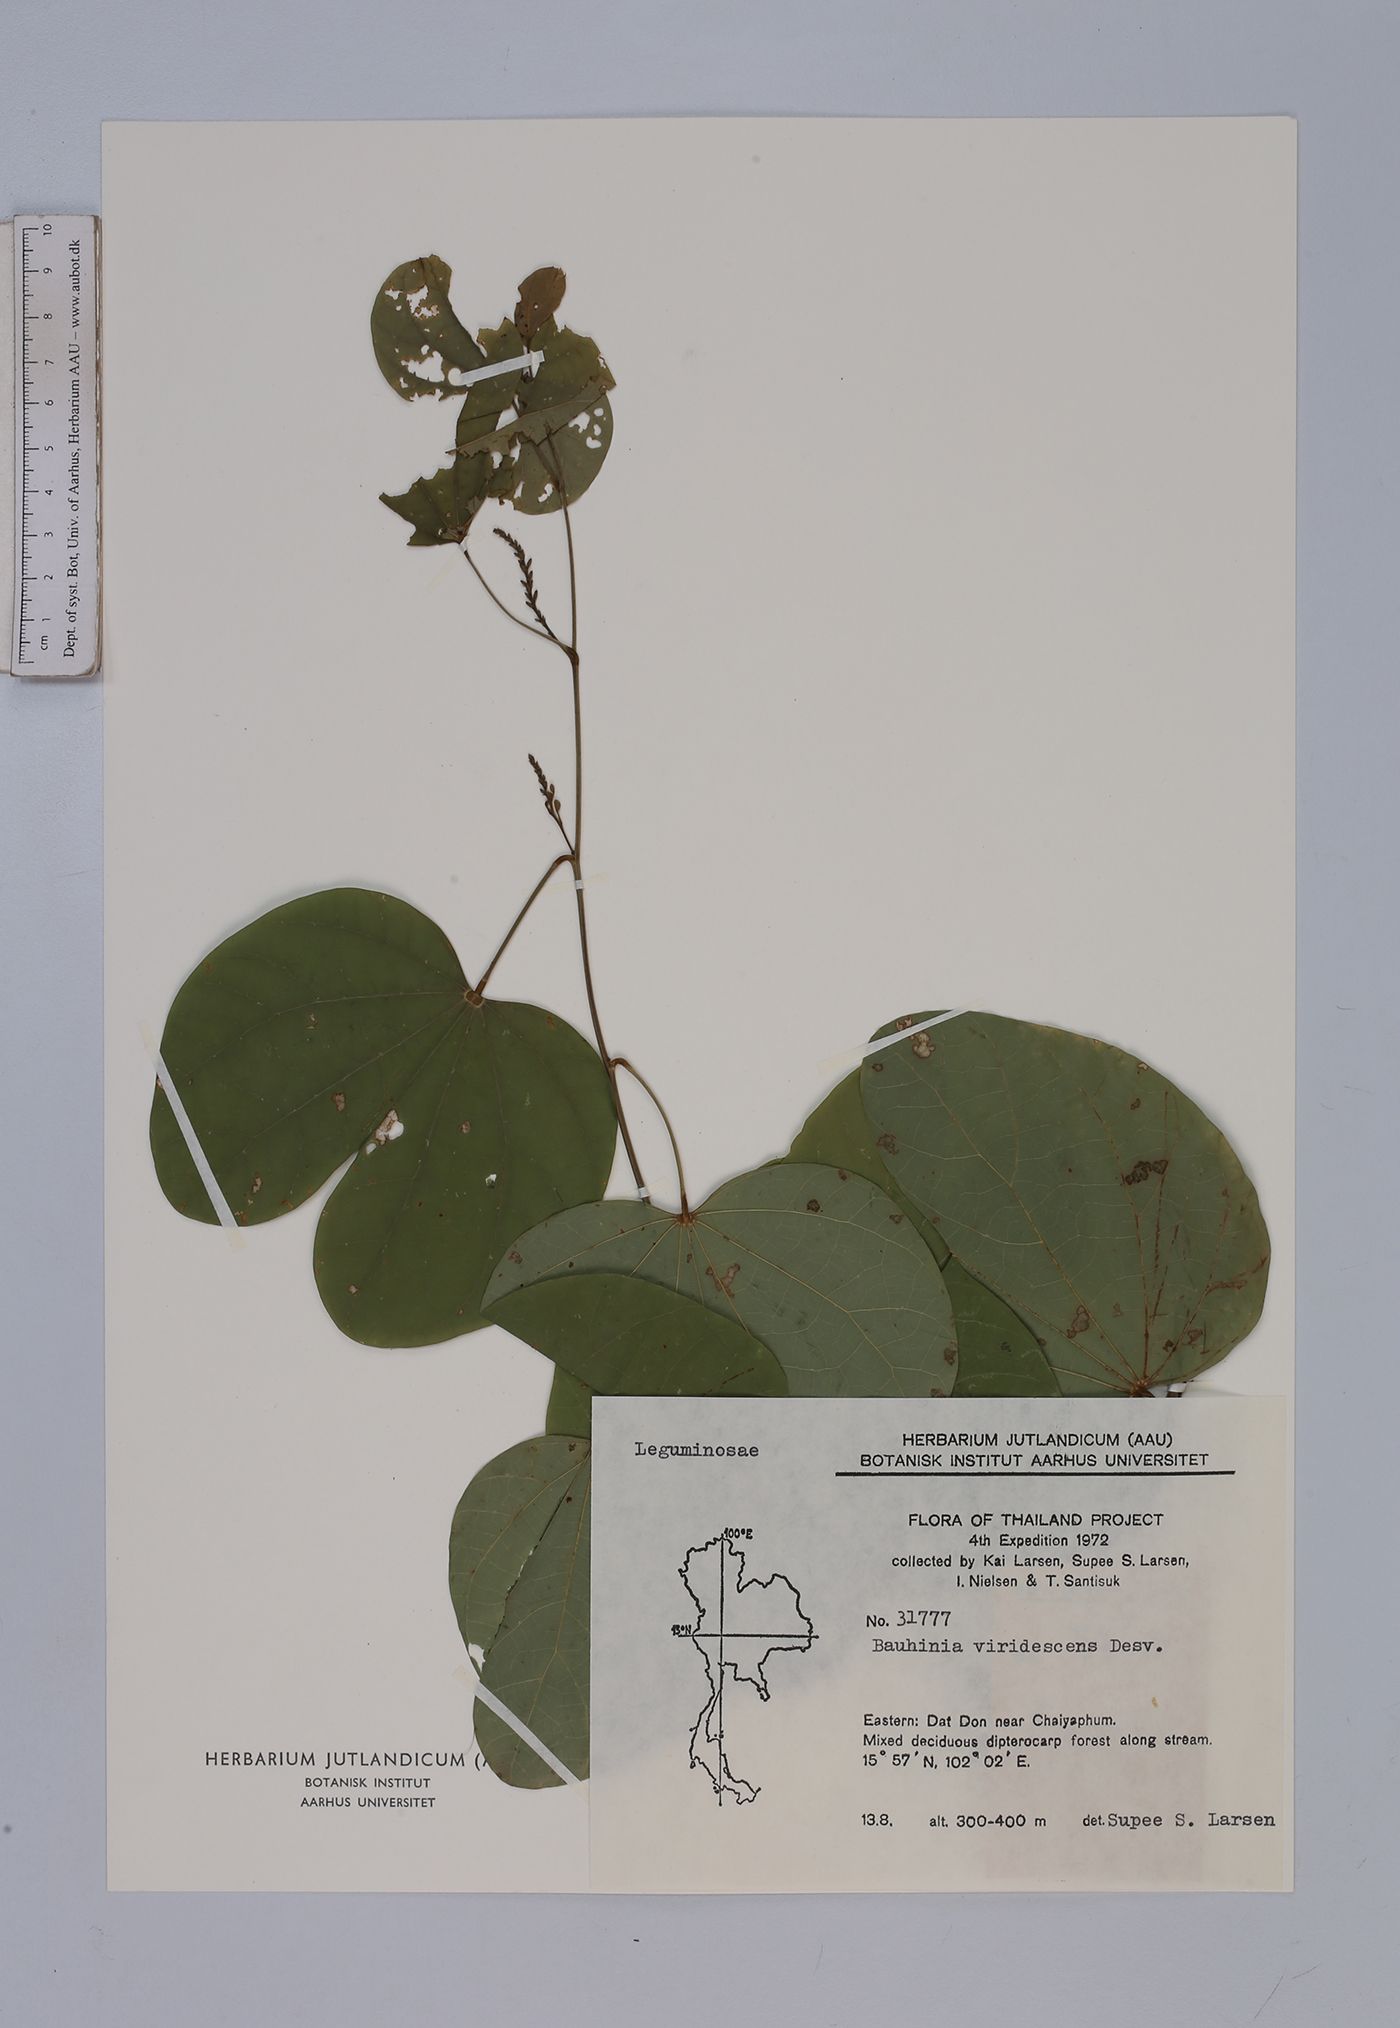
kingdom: Plantae
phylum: Tracheophyta
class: Magnoliopsida
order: Fabales
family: Fabaceae
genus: Bauhinia
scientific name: Bauhinia viridescens
